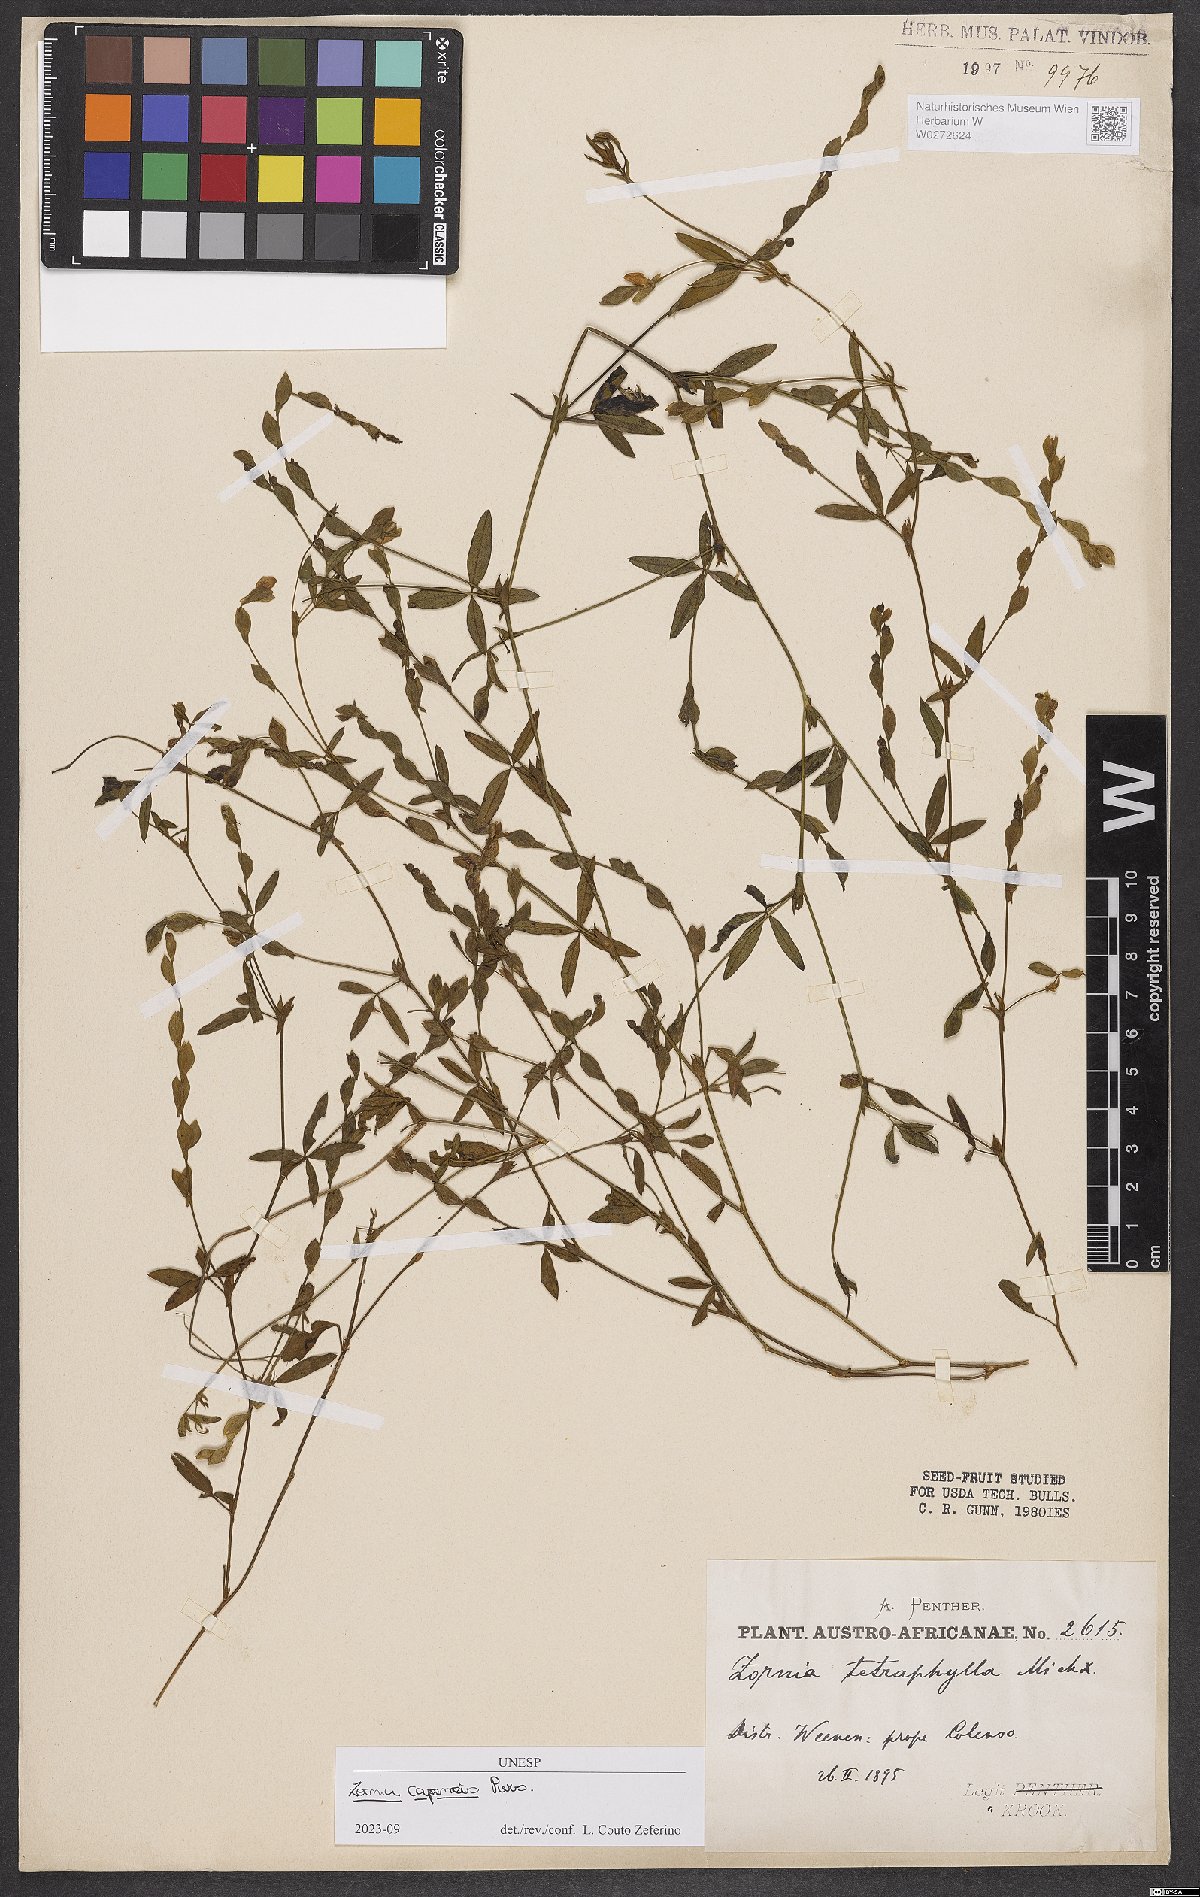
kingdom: Plantae
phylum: Tracheophyta
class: Magnoliopsida
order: Fabales
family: Fabaceae
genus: Zornia
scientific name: Zornia capensis
